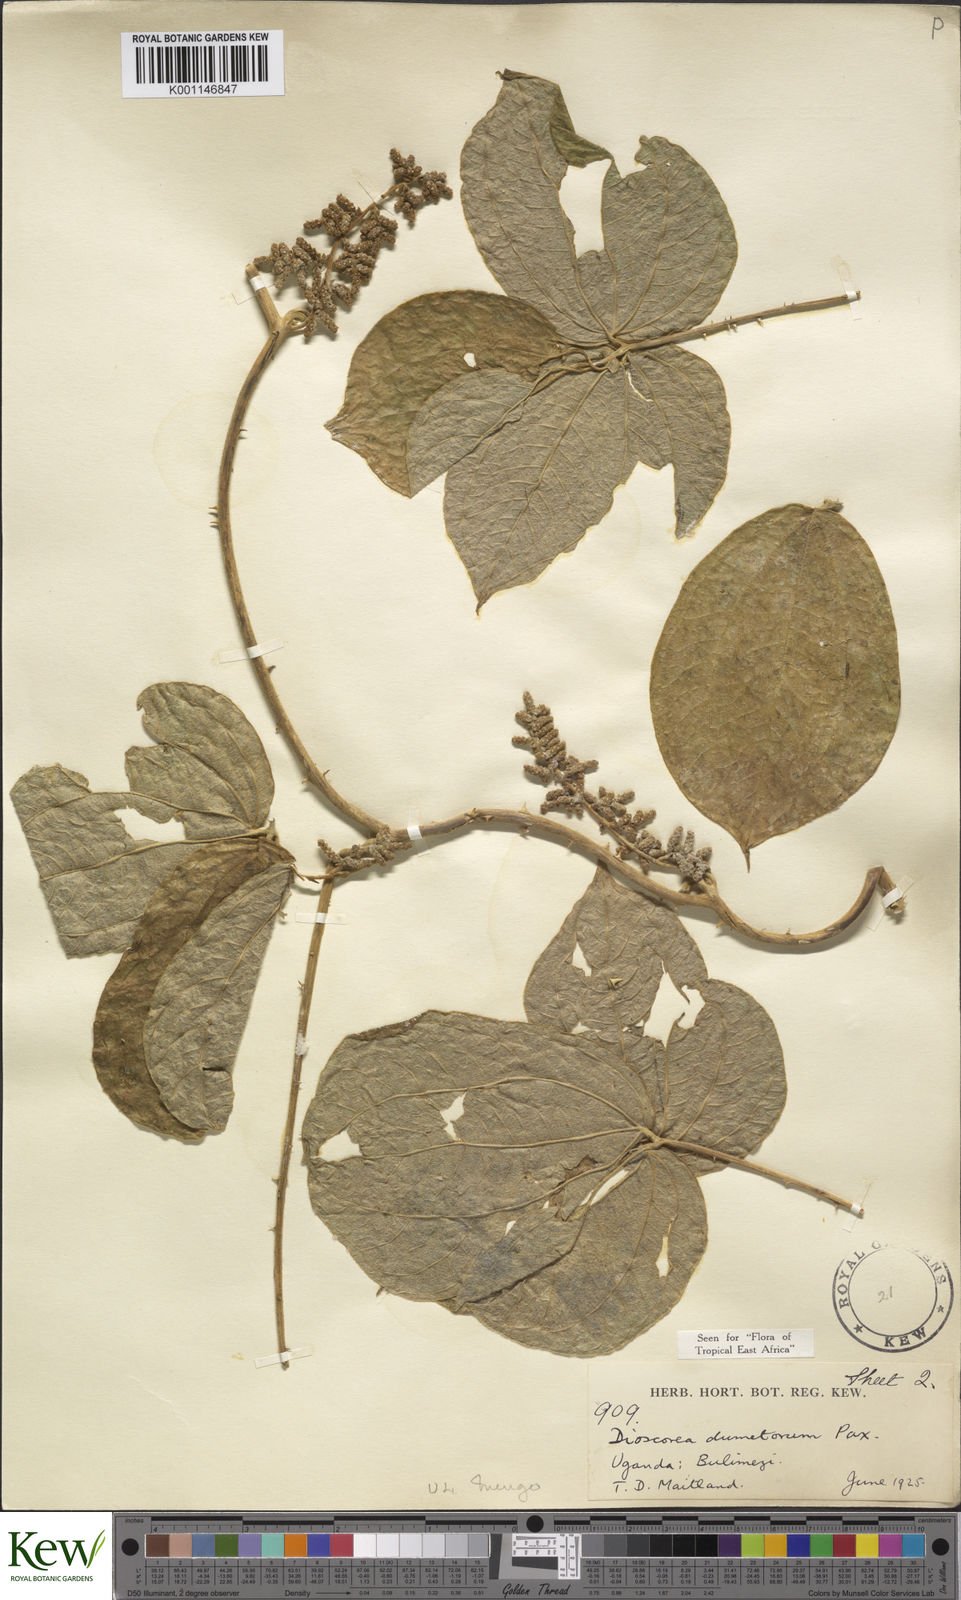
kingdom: Plantae
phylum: Tracheophyta
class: Liliopsida
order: Dioscoreales
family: Dioscoreaceae
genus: Dioscorea
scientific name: Dioscorea dumetorum
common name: African bitter yam
